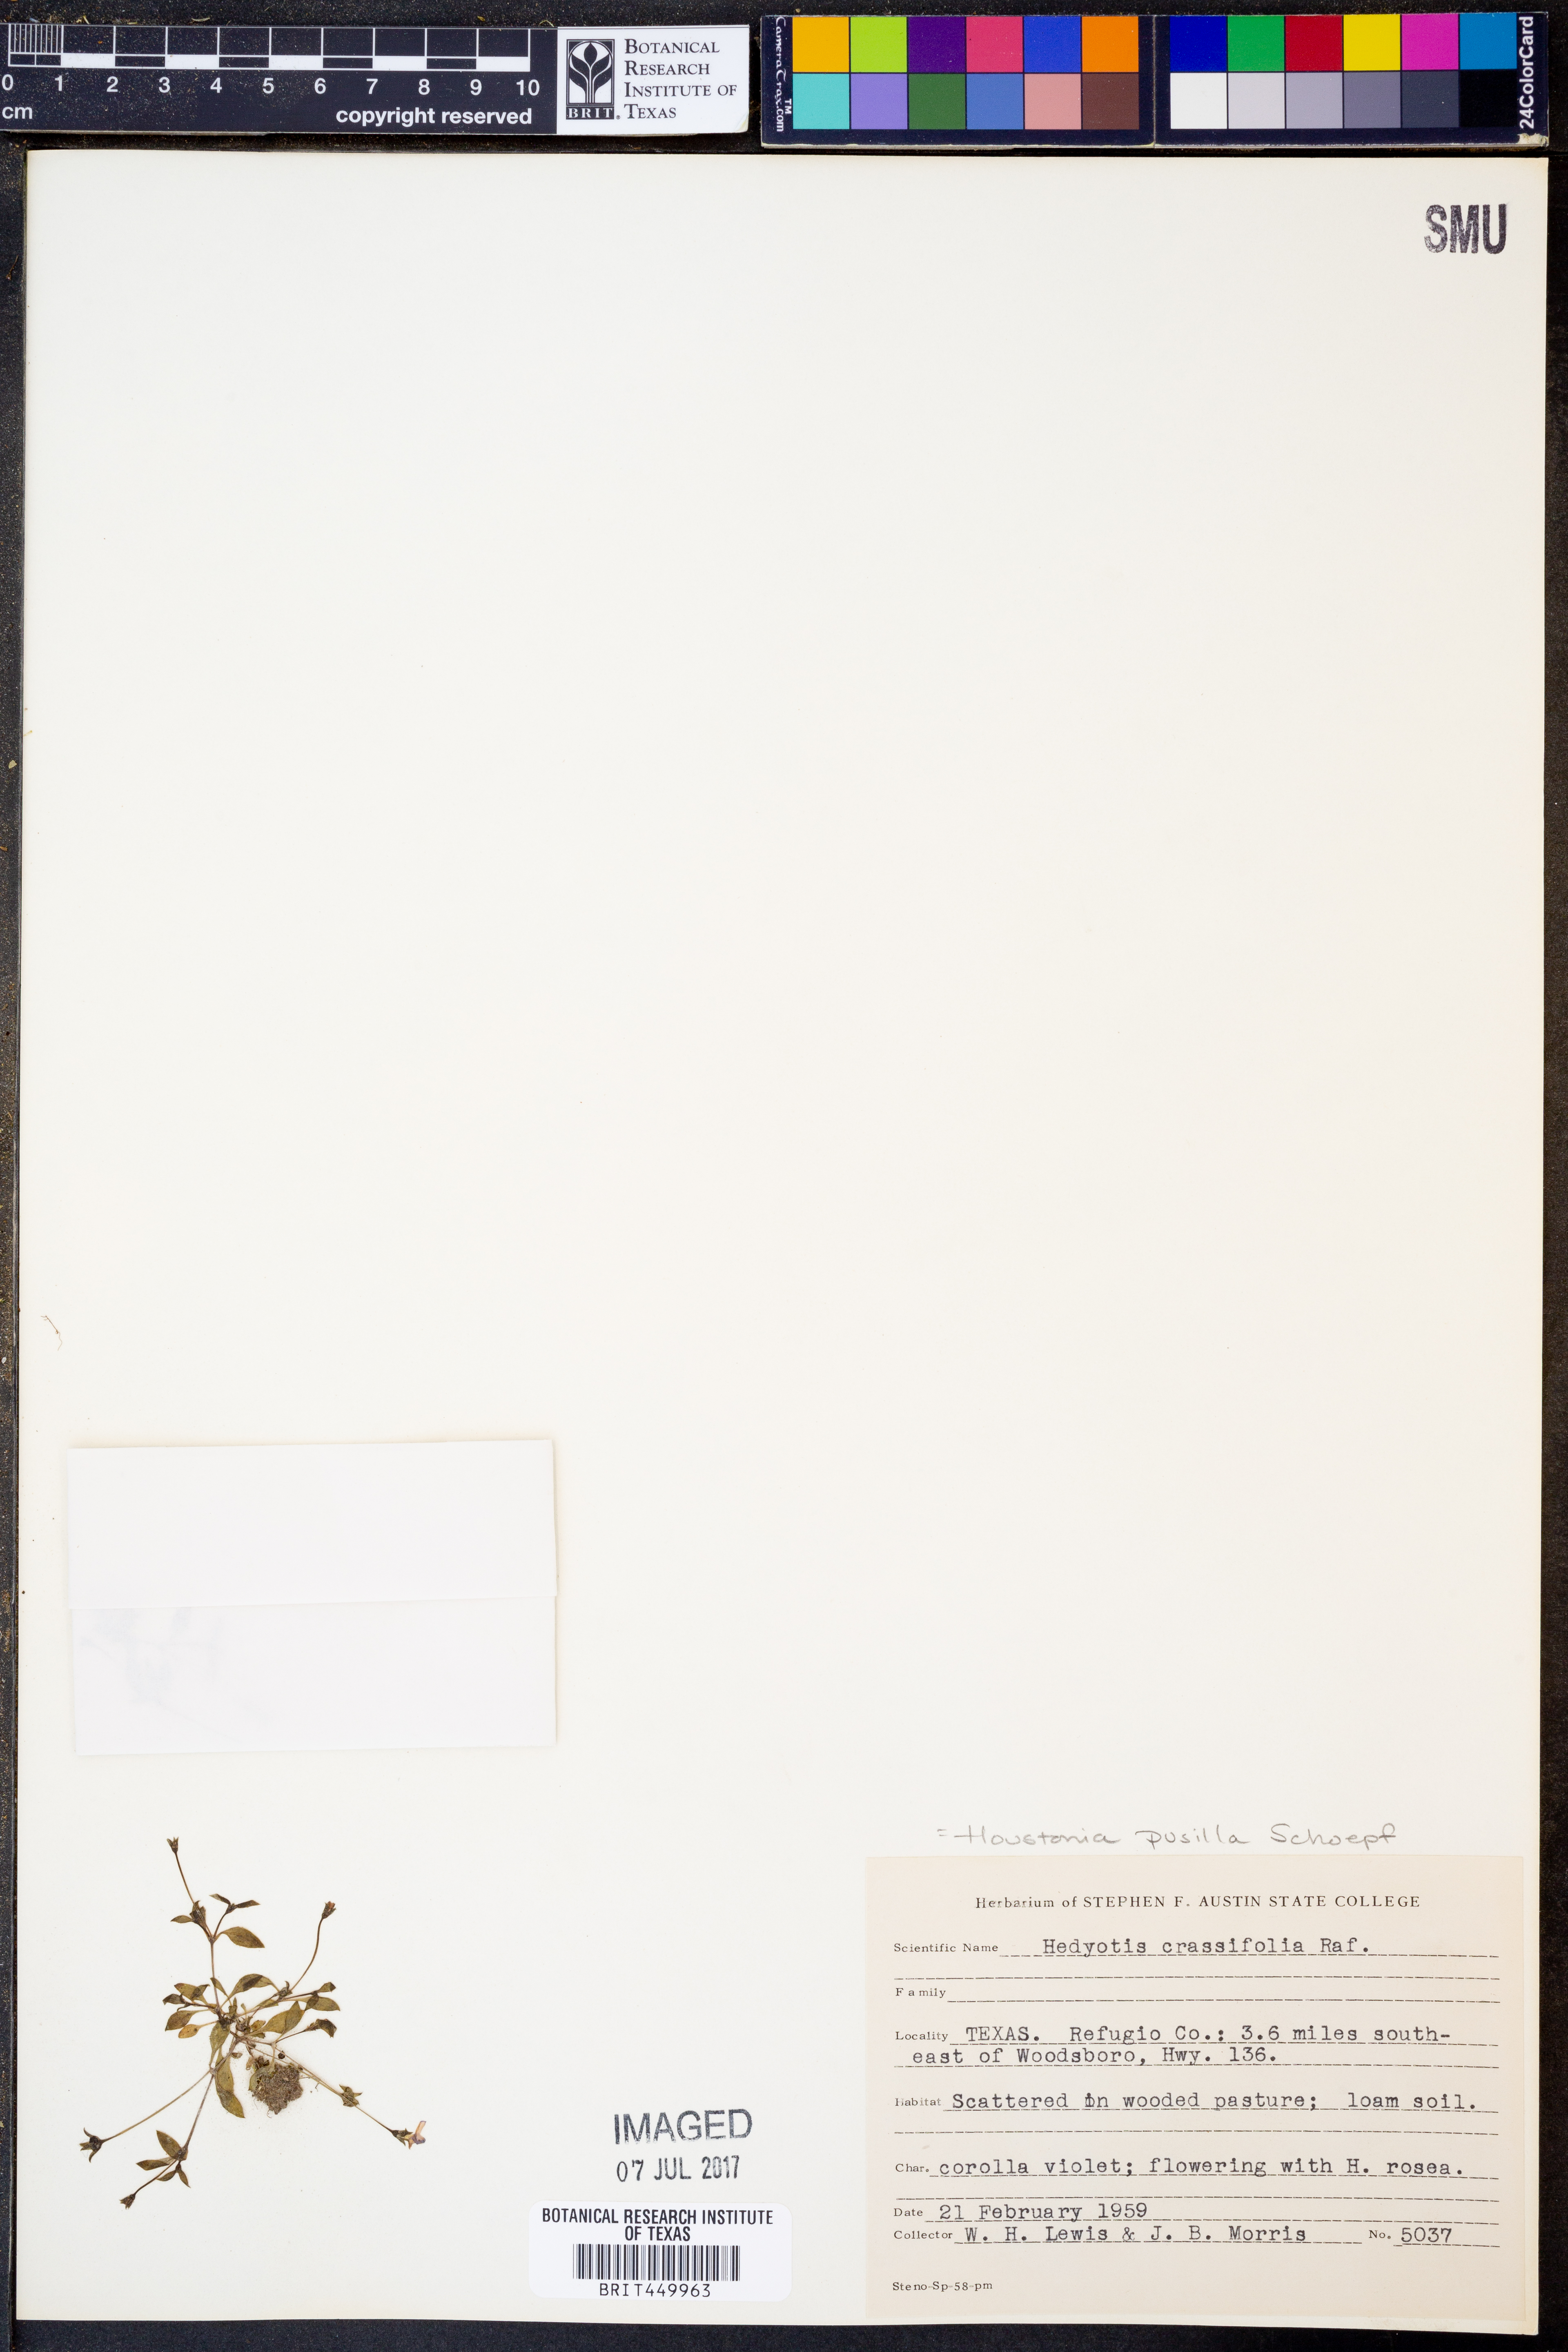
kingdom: Plantae
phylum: Tracheophyta
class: Magnoliopsida
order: Gentianales
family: Rubiaceae
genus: Houstonia
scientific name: Houstonia pusilla
